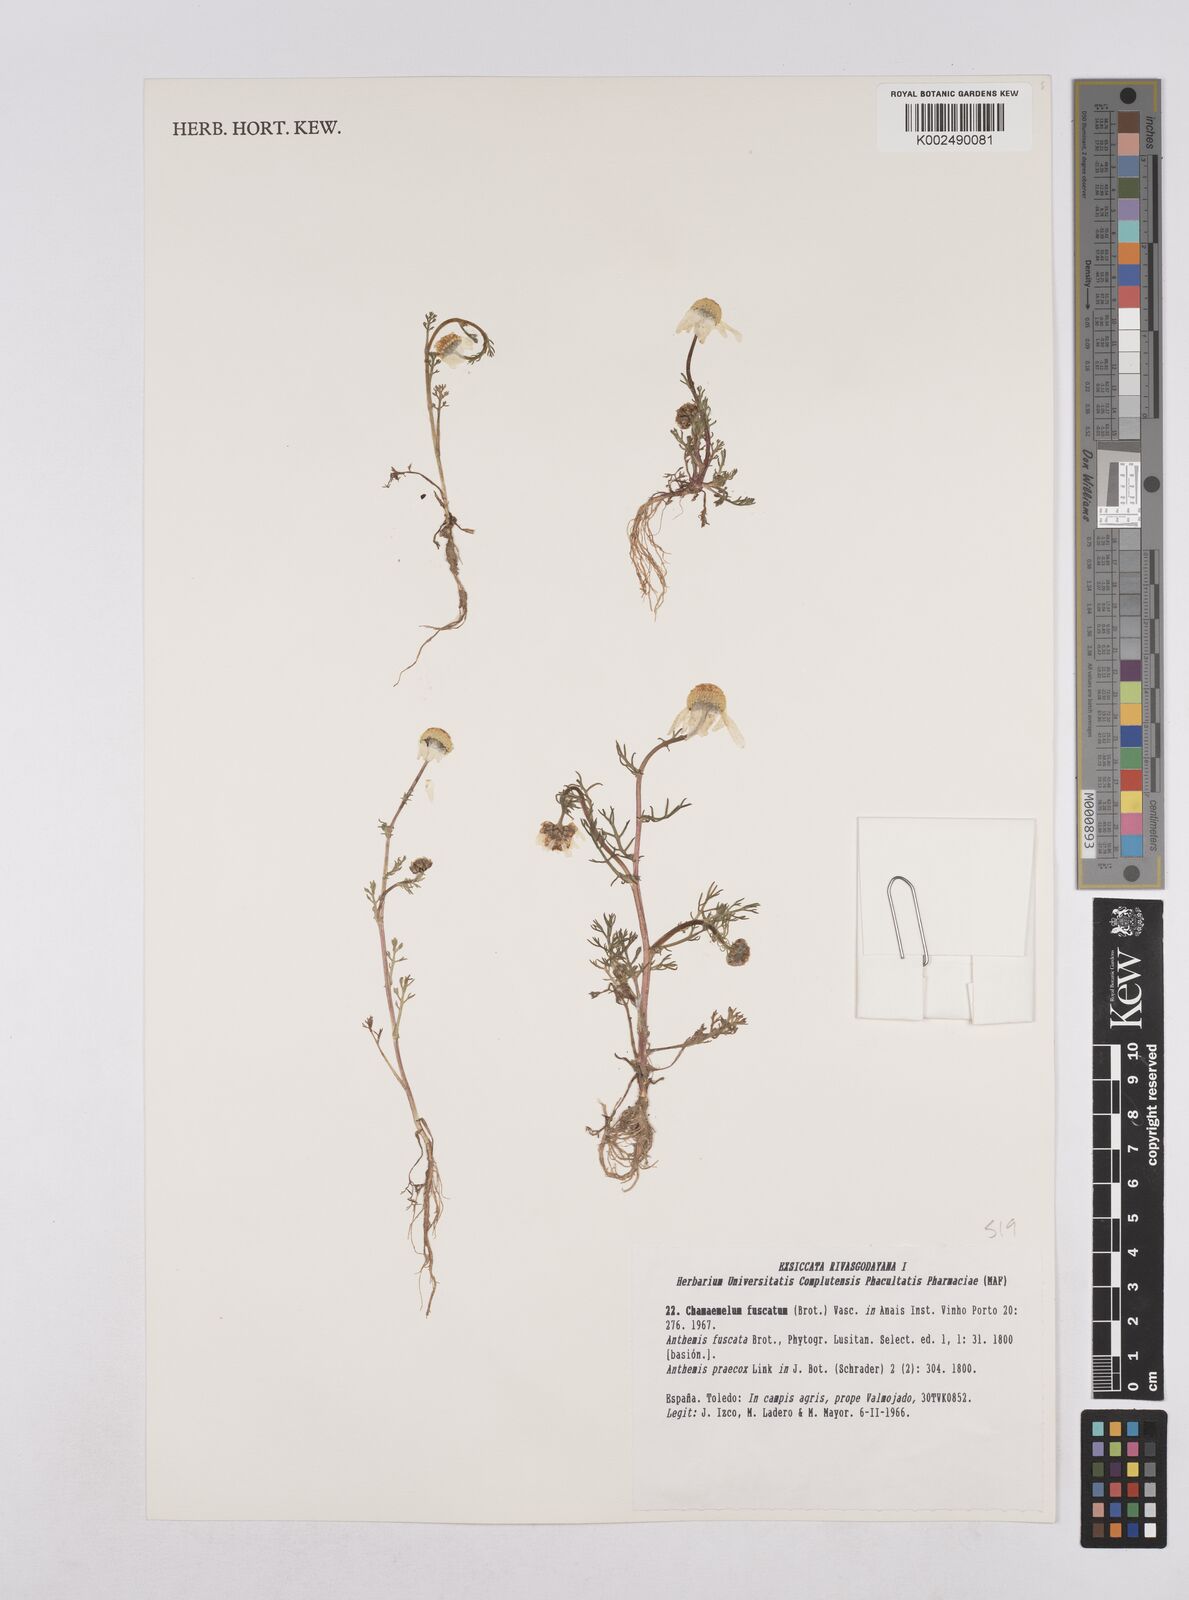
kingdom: Plantae
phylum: Tracheophyta
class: Magnoliopsida
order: Asterales
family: Asteraceae
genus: Chamaemelum
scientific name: Chamaemelum fuscatum
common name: Chamomile
